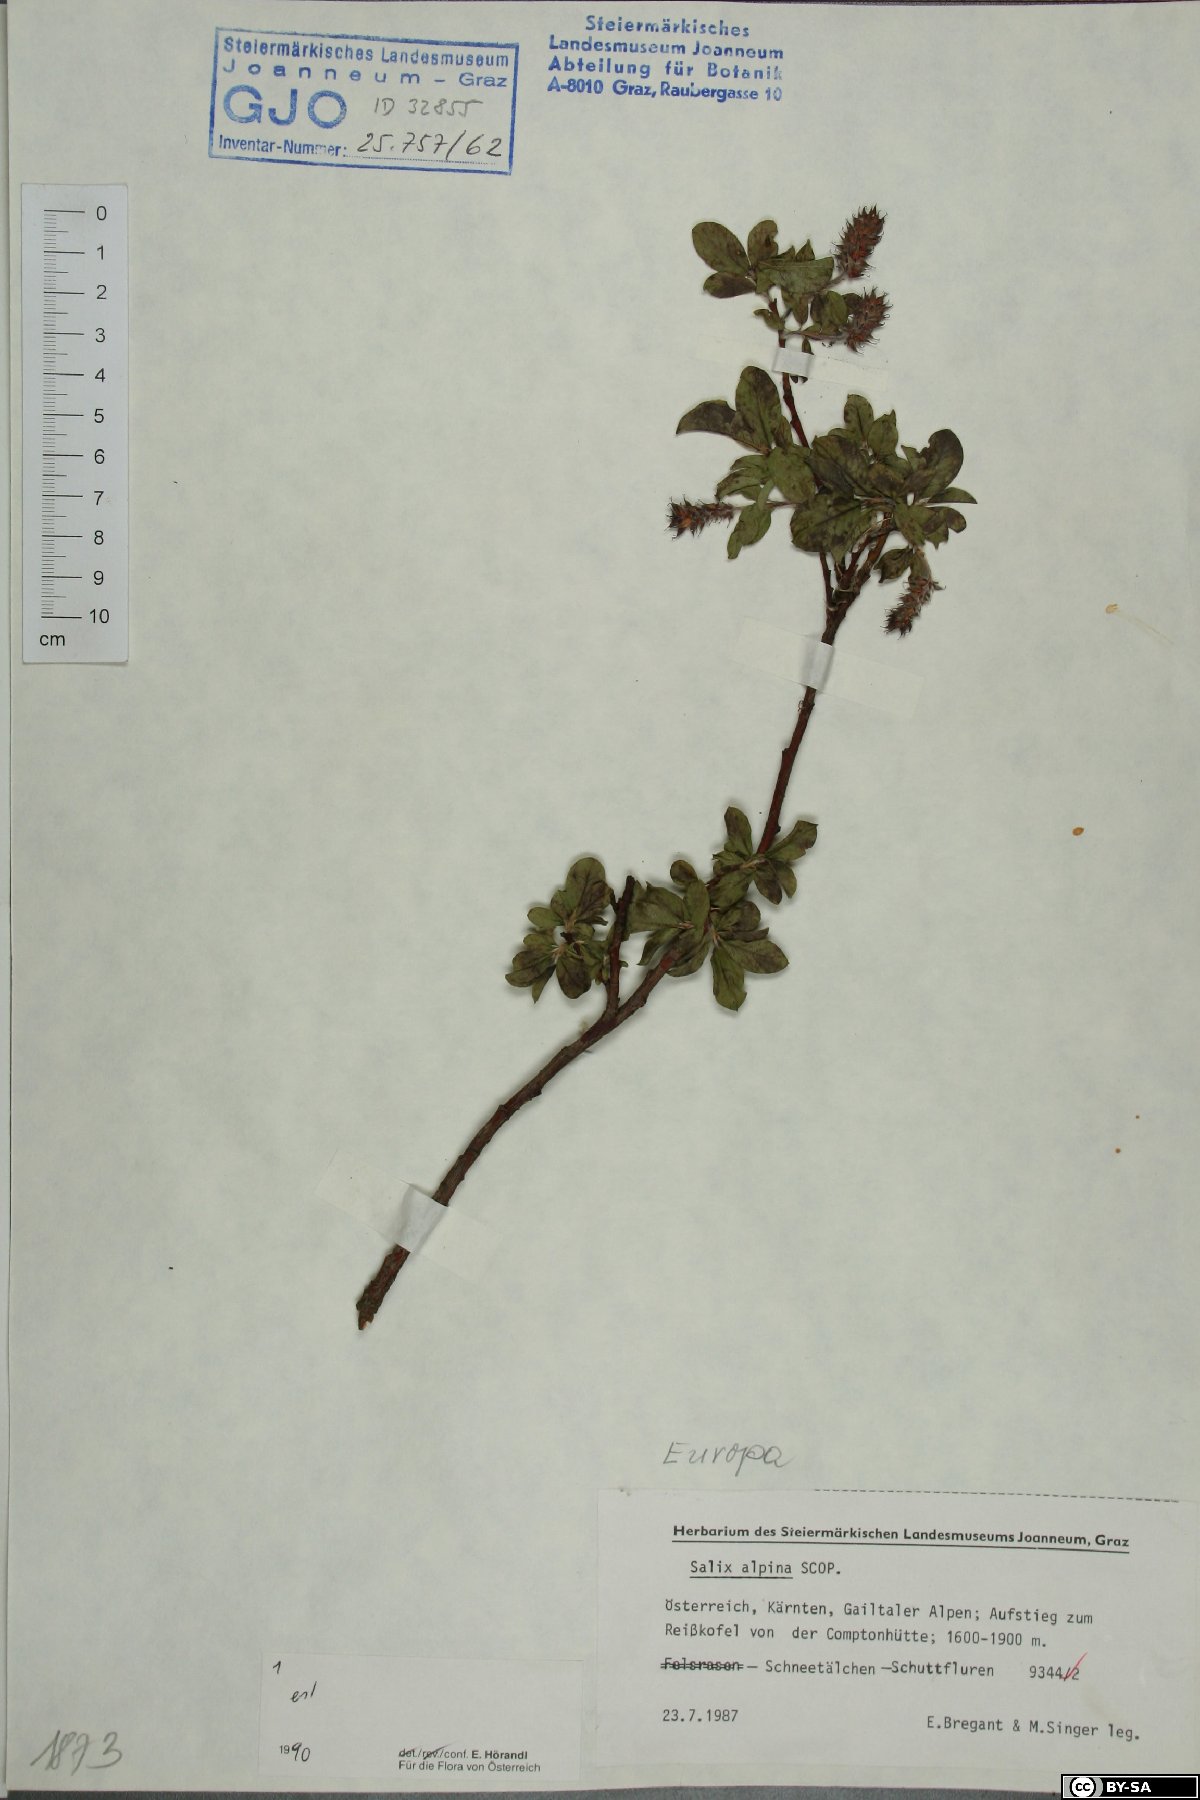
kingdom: Plantae
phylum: Tracheophyta
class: Magnoliopsida
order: Malpighiales
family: Salicaceae
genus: Salix
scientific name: Salix alpina
